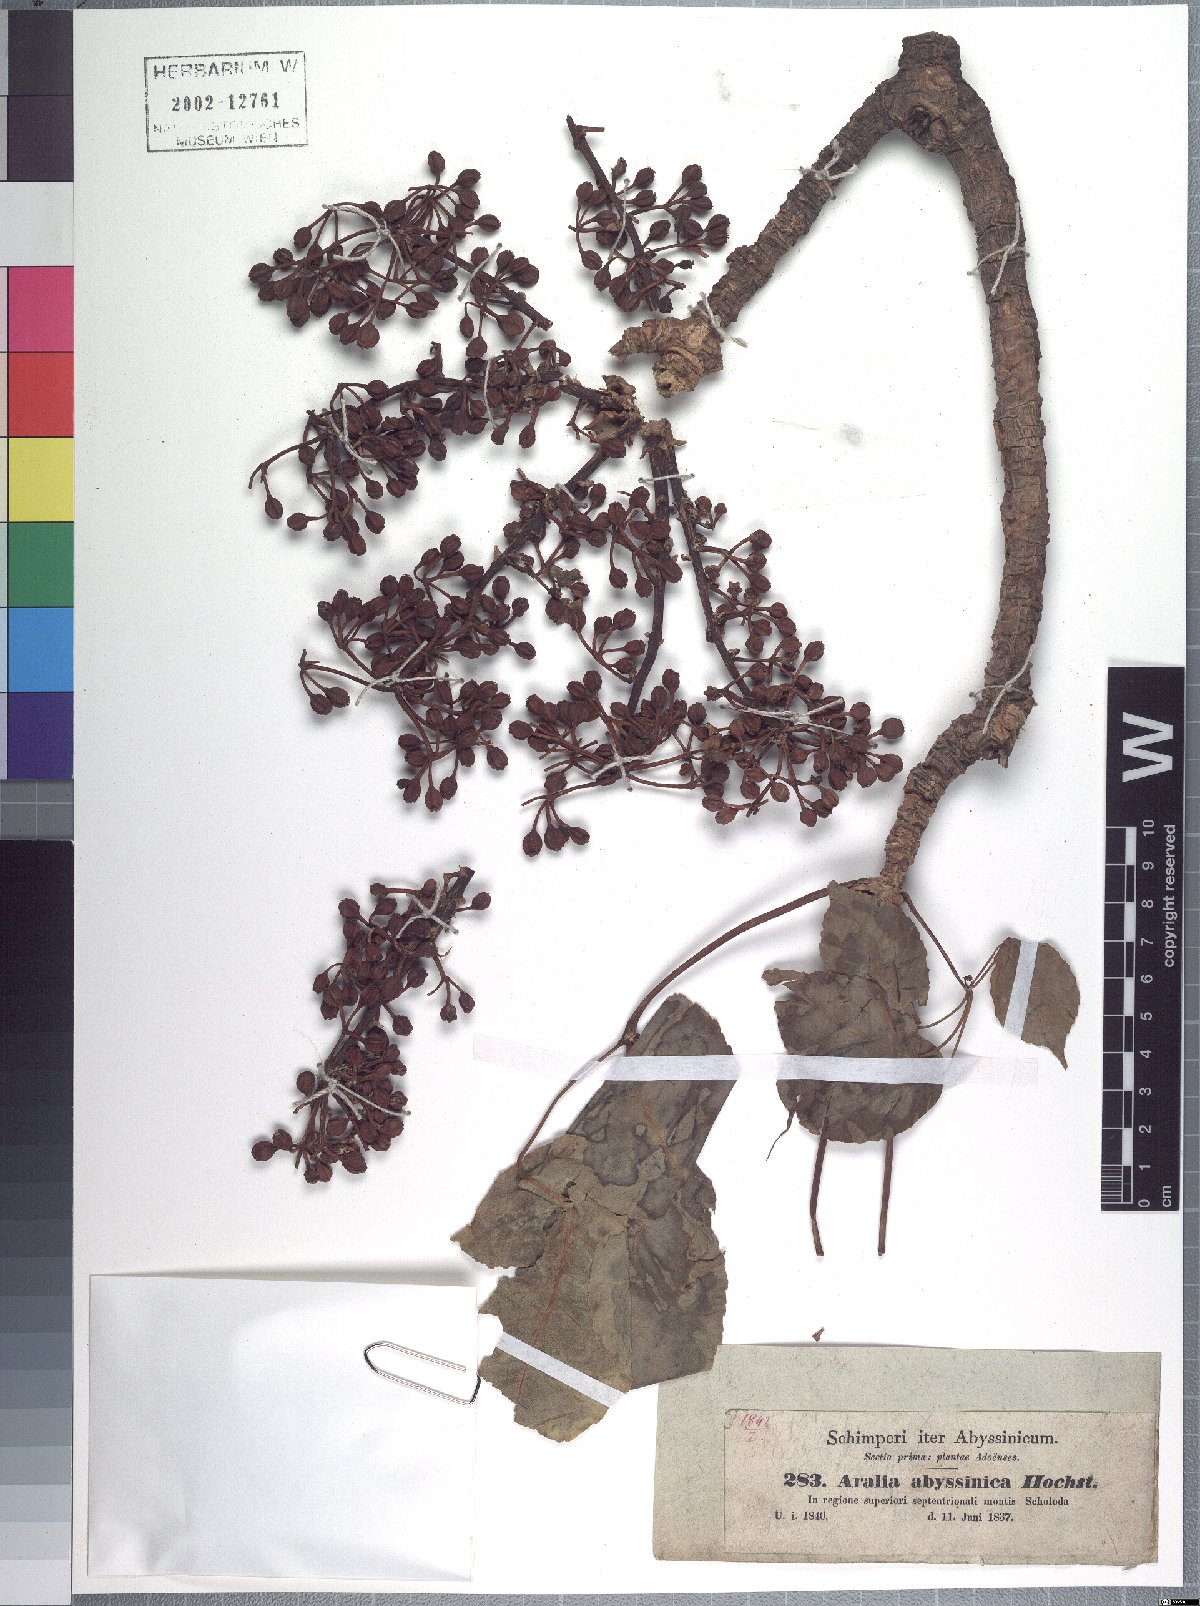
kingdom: Plantae
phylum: Tracheophyta
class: Magnoliopsida
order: Apiales
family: Araliaceae
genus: Astropanax
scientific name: Astropanax abyssinicum
